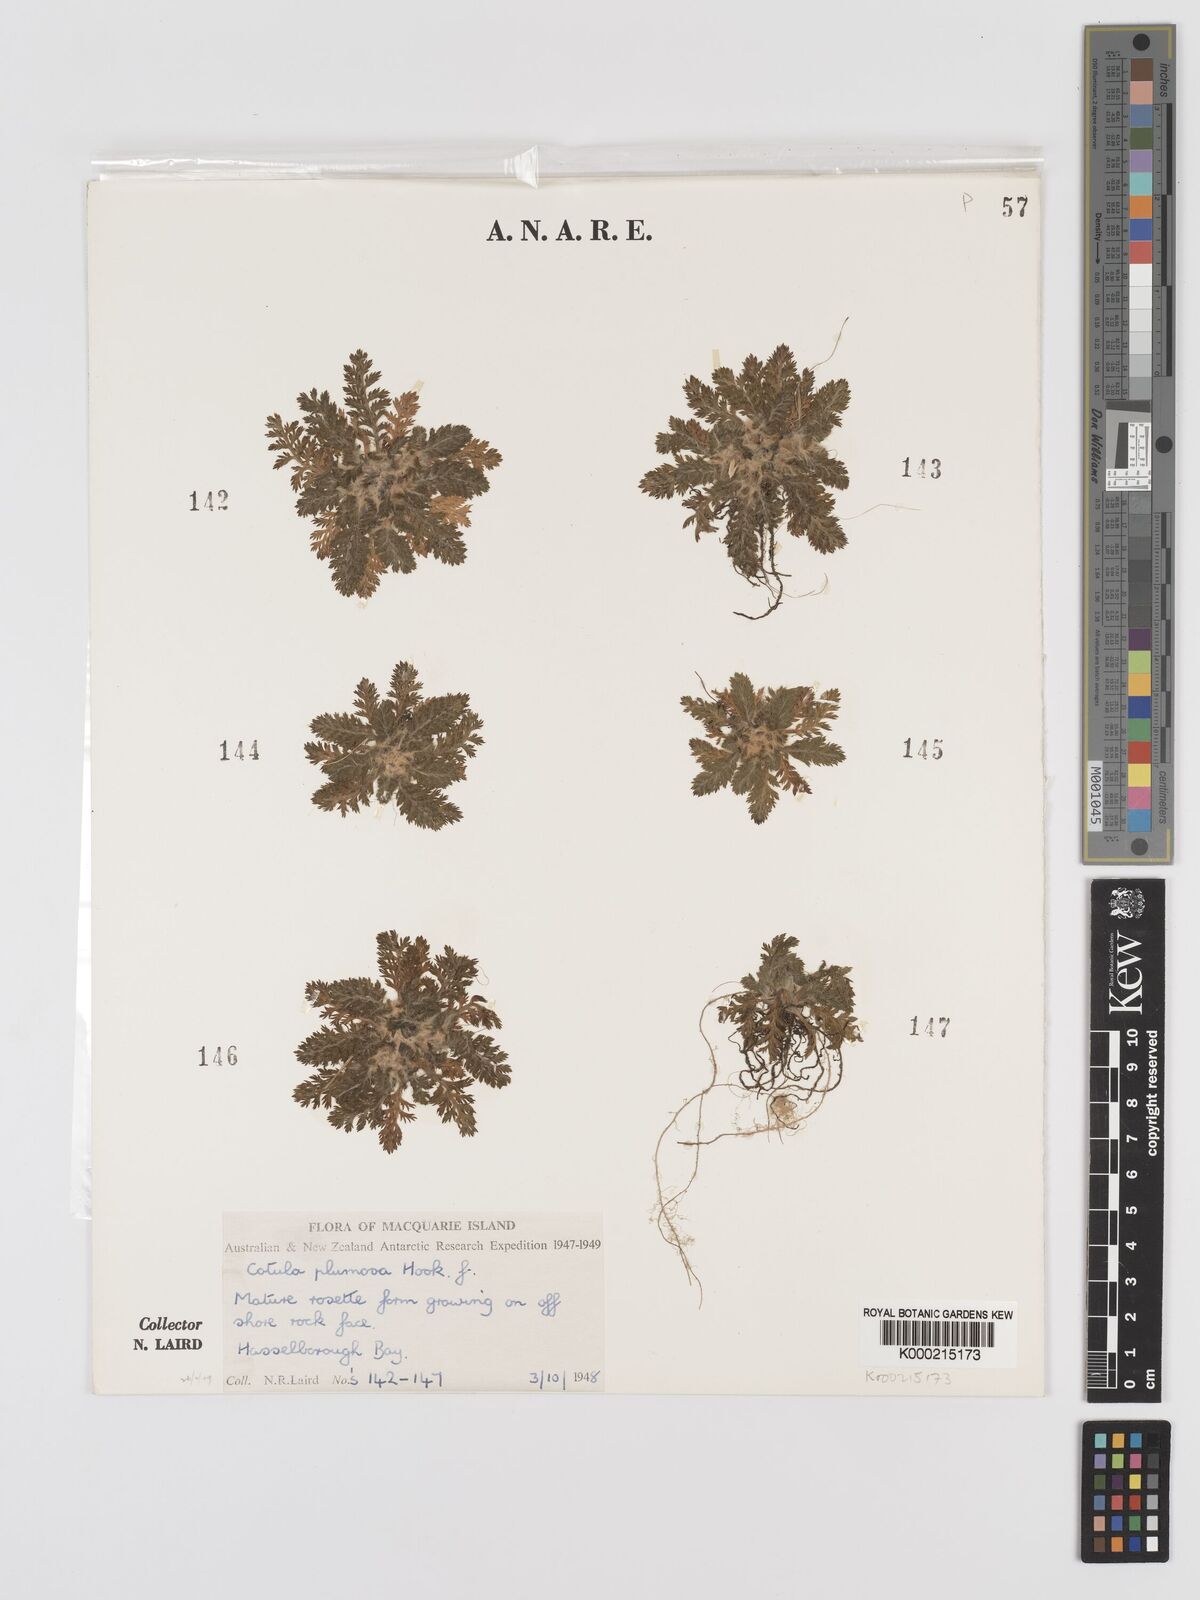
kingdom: Plantae
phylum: Tracheophyta
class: Magnoliopsida
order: Asterales
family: Asteraceae
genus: Leptinella
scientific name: Leptinella
